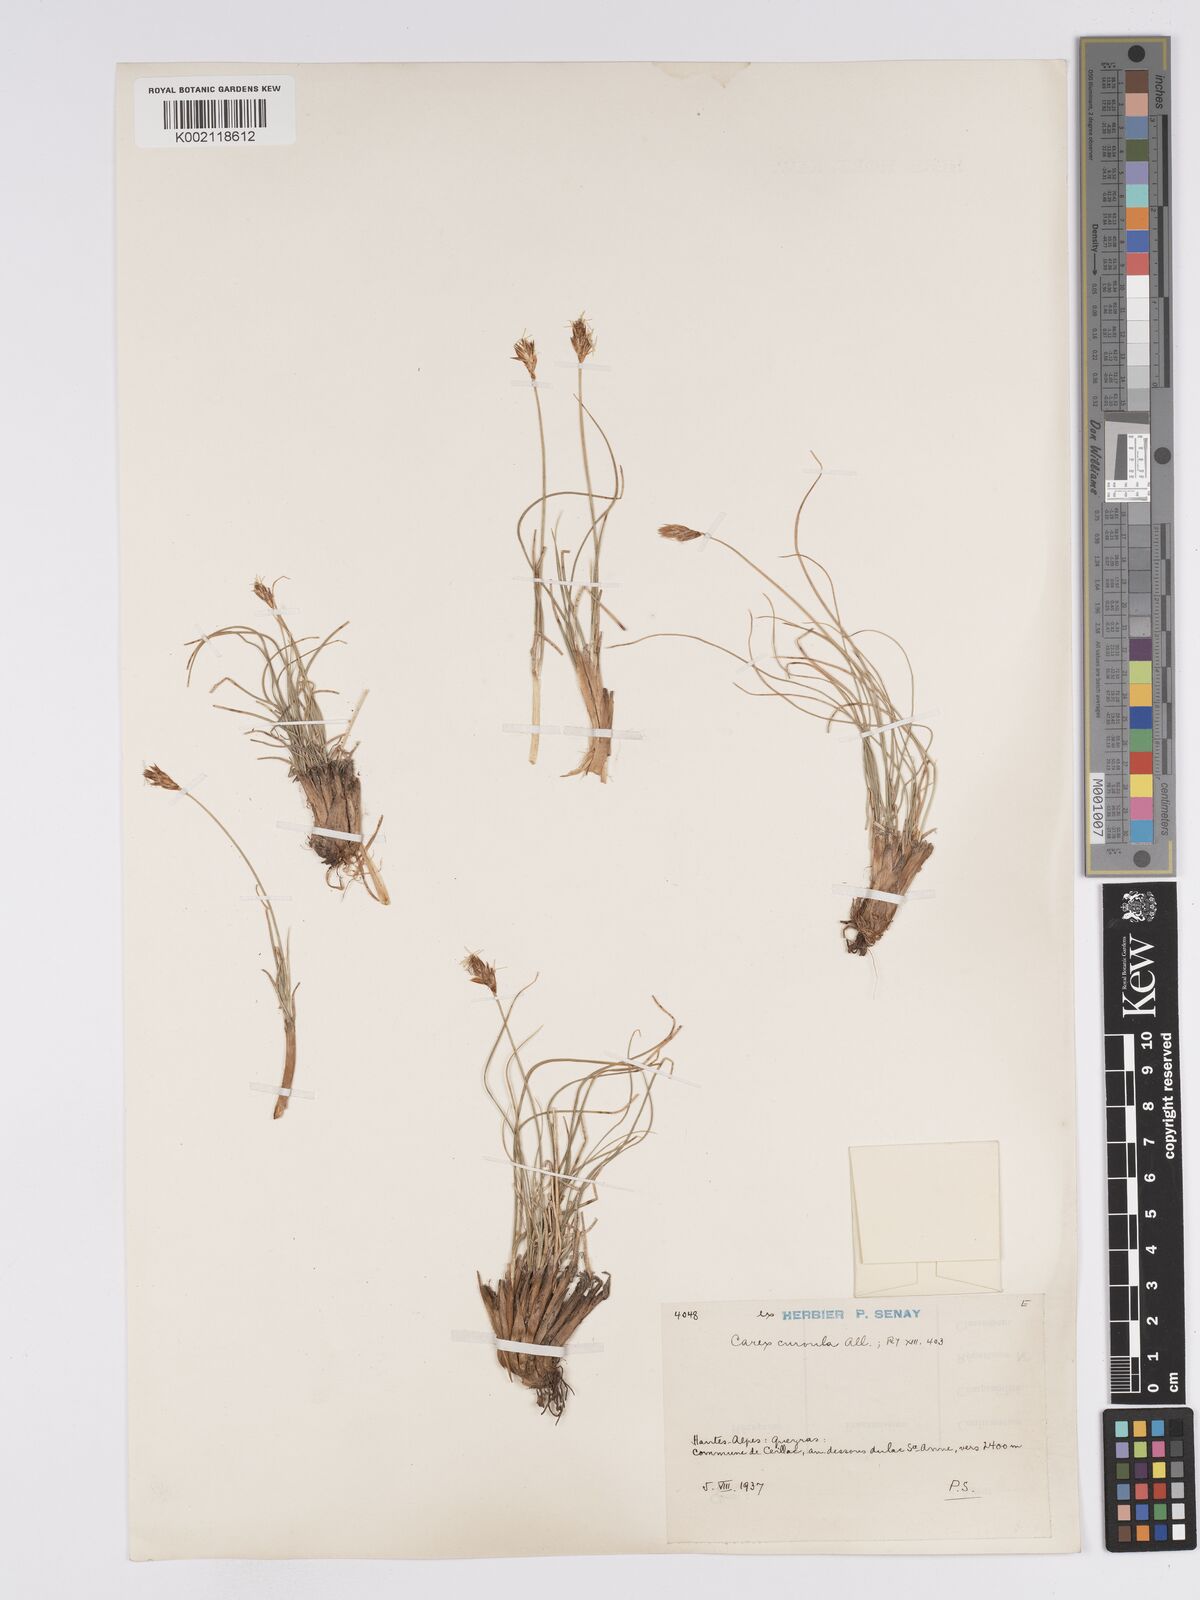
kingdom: Plantae
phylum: Tracheophyta
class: Liliopsida
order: Poales
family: Cyperaceae
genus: Carex
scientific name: Carex curvula
